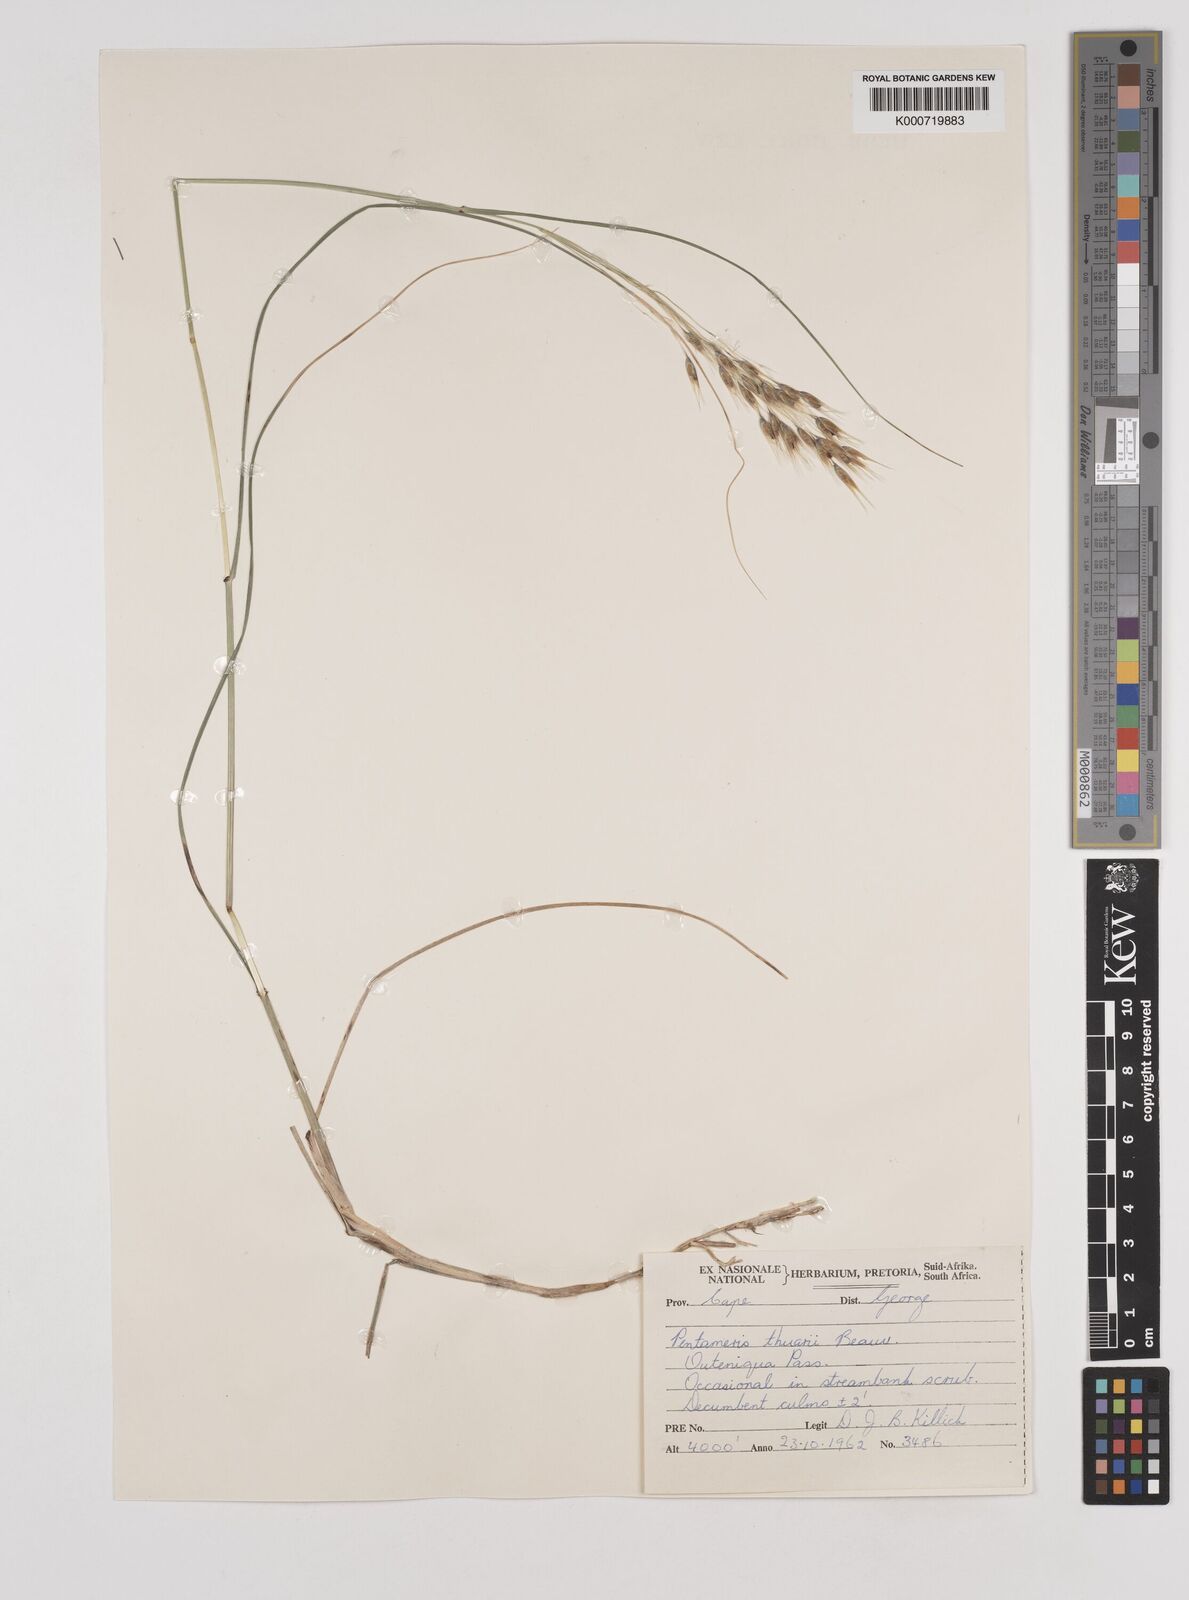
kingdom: Plantae
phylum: Tracheophyta
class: Liliopsida
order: Poales
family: Poaceae
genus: Pentameris
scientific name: Pentameris thuarii
